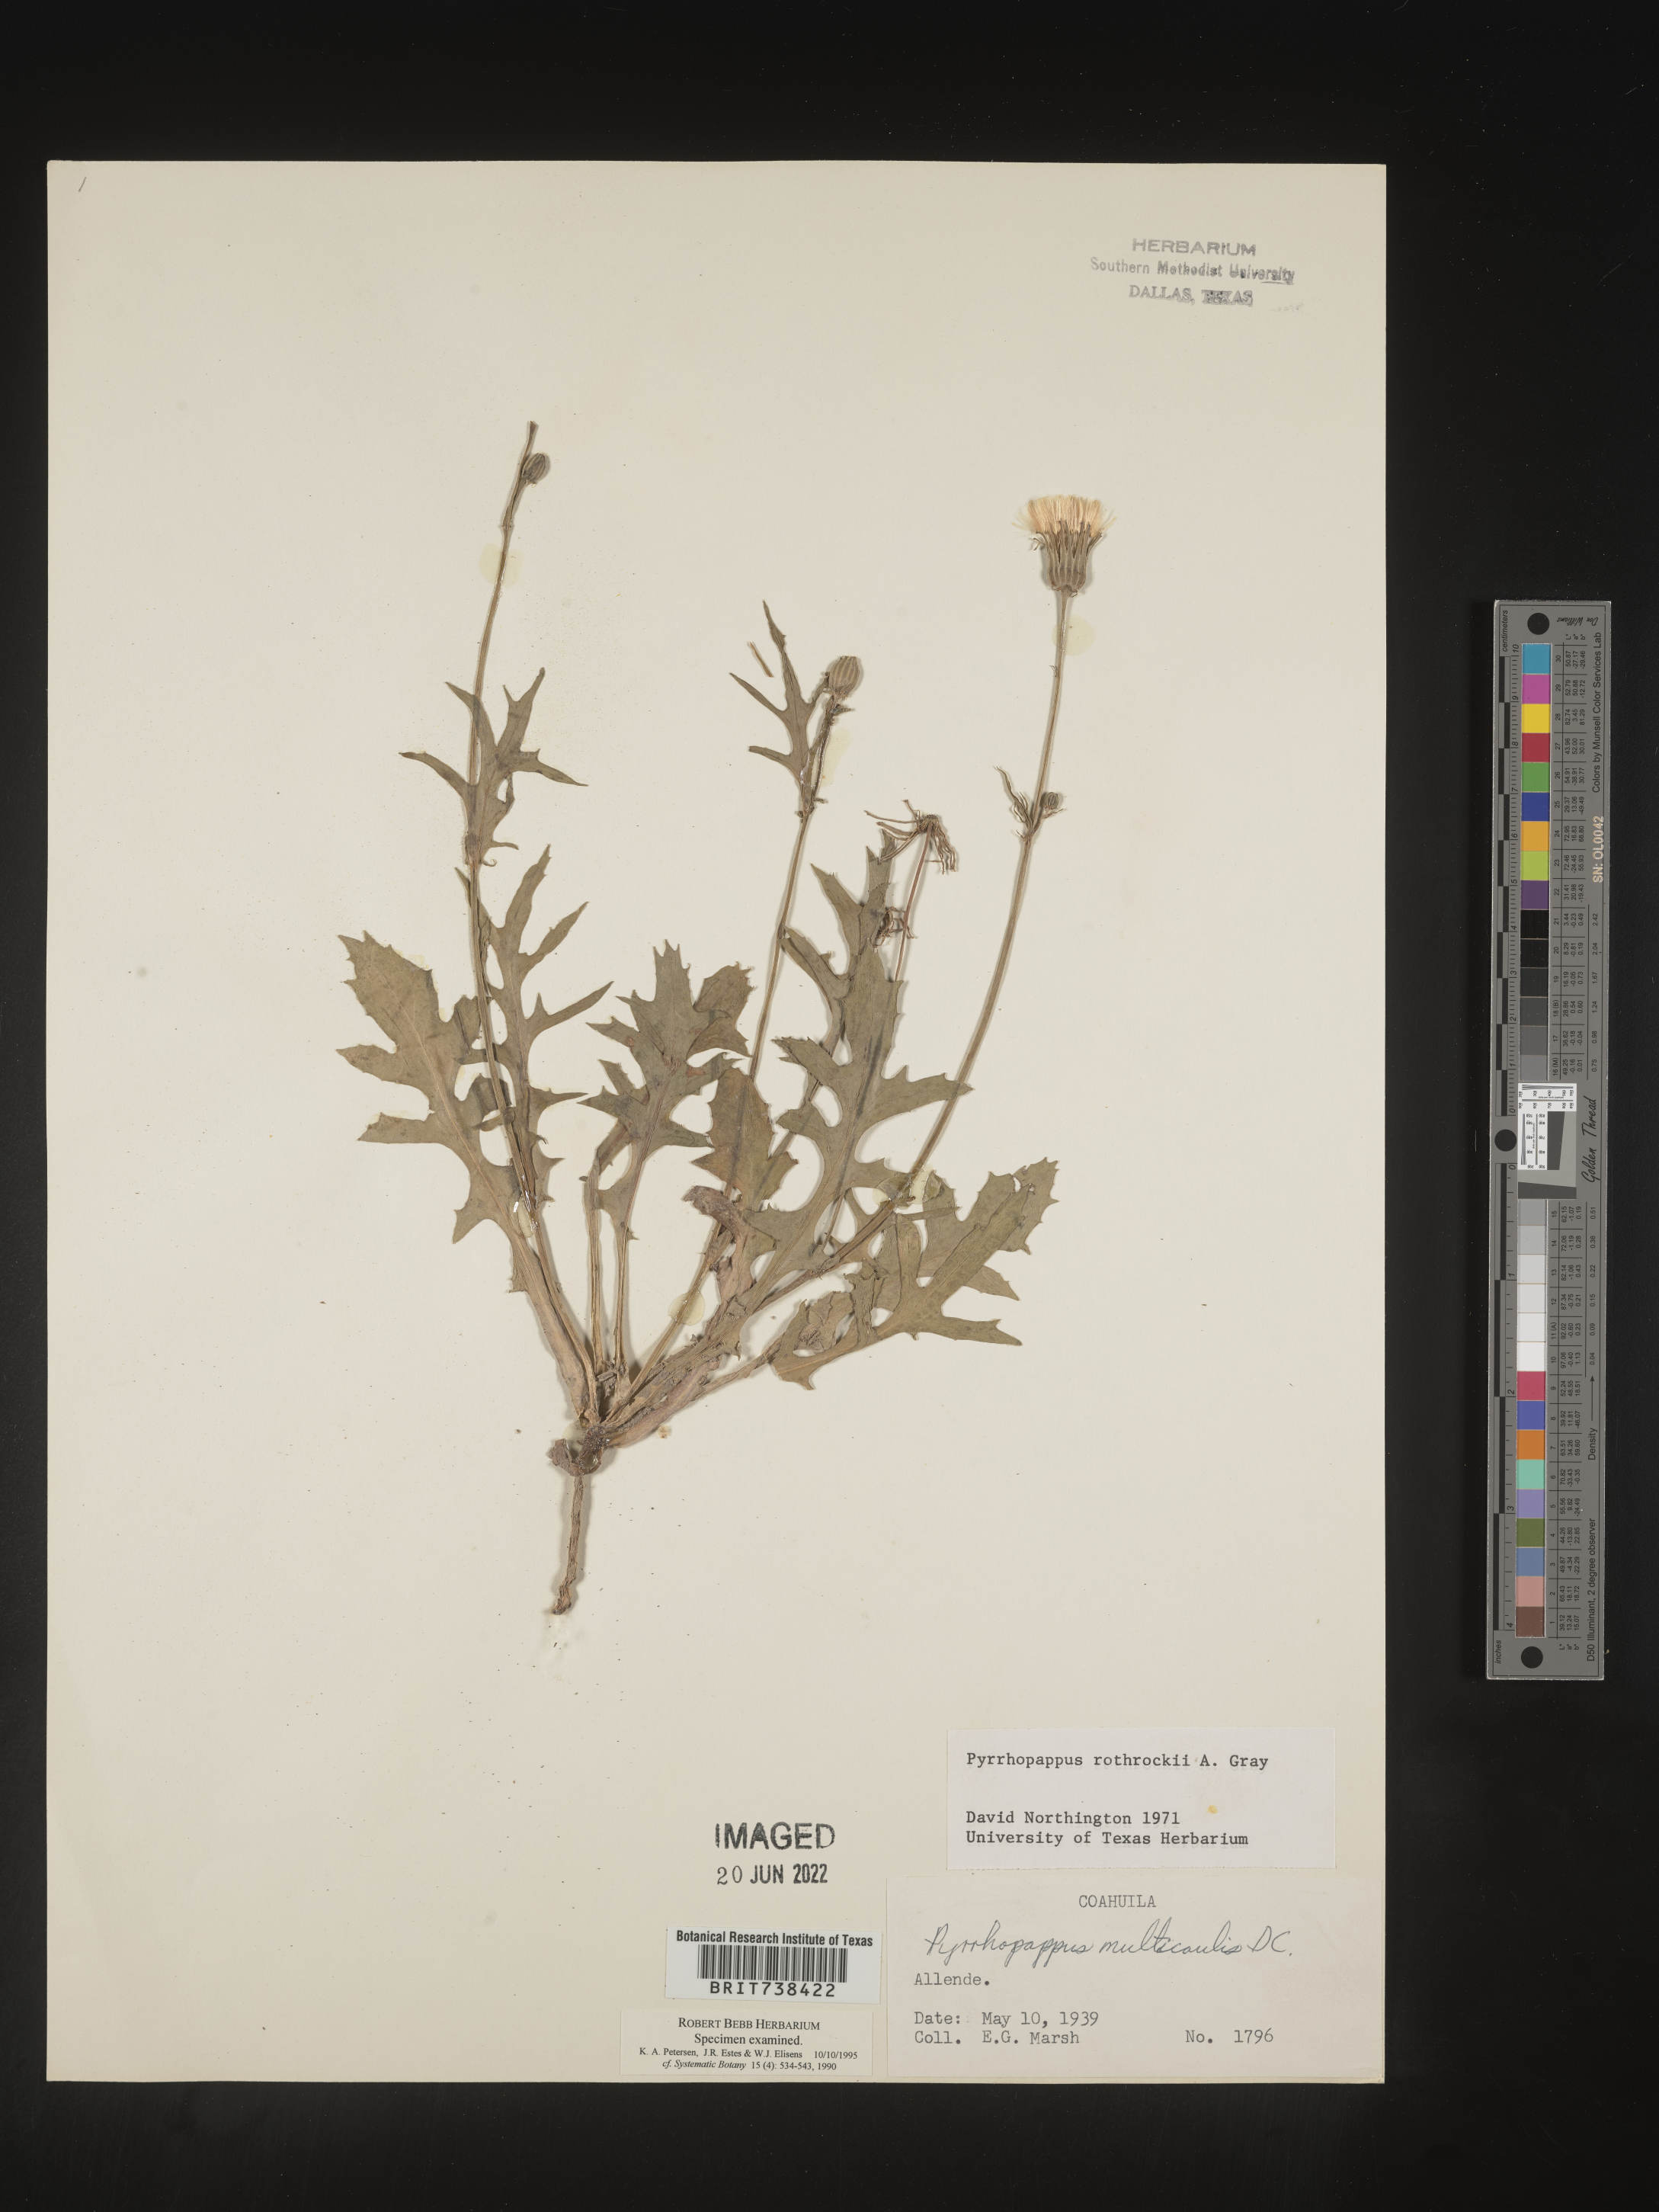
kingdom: Plantae
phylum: Tracheophyta
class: Magnoliopsida
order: Asterales
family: Asteraceae
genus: Pyrrhopappus
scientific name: Pyrrhopappus
